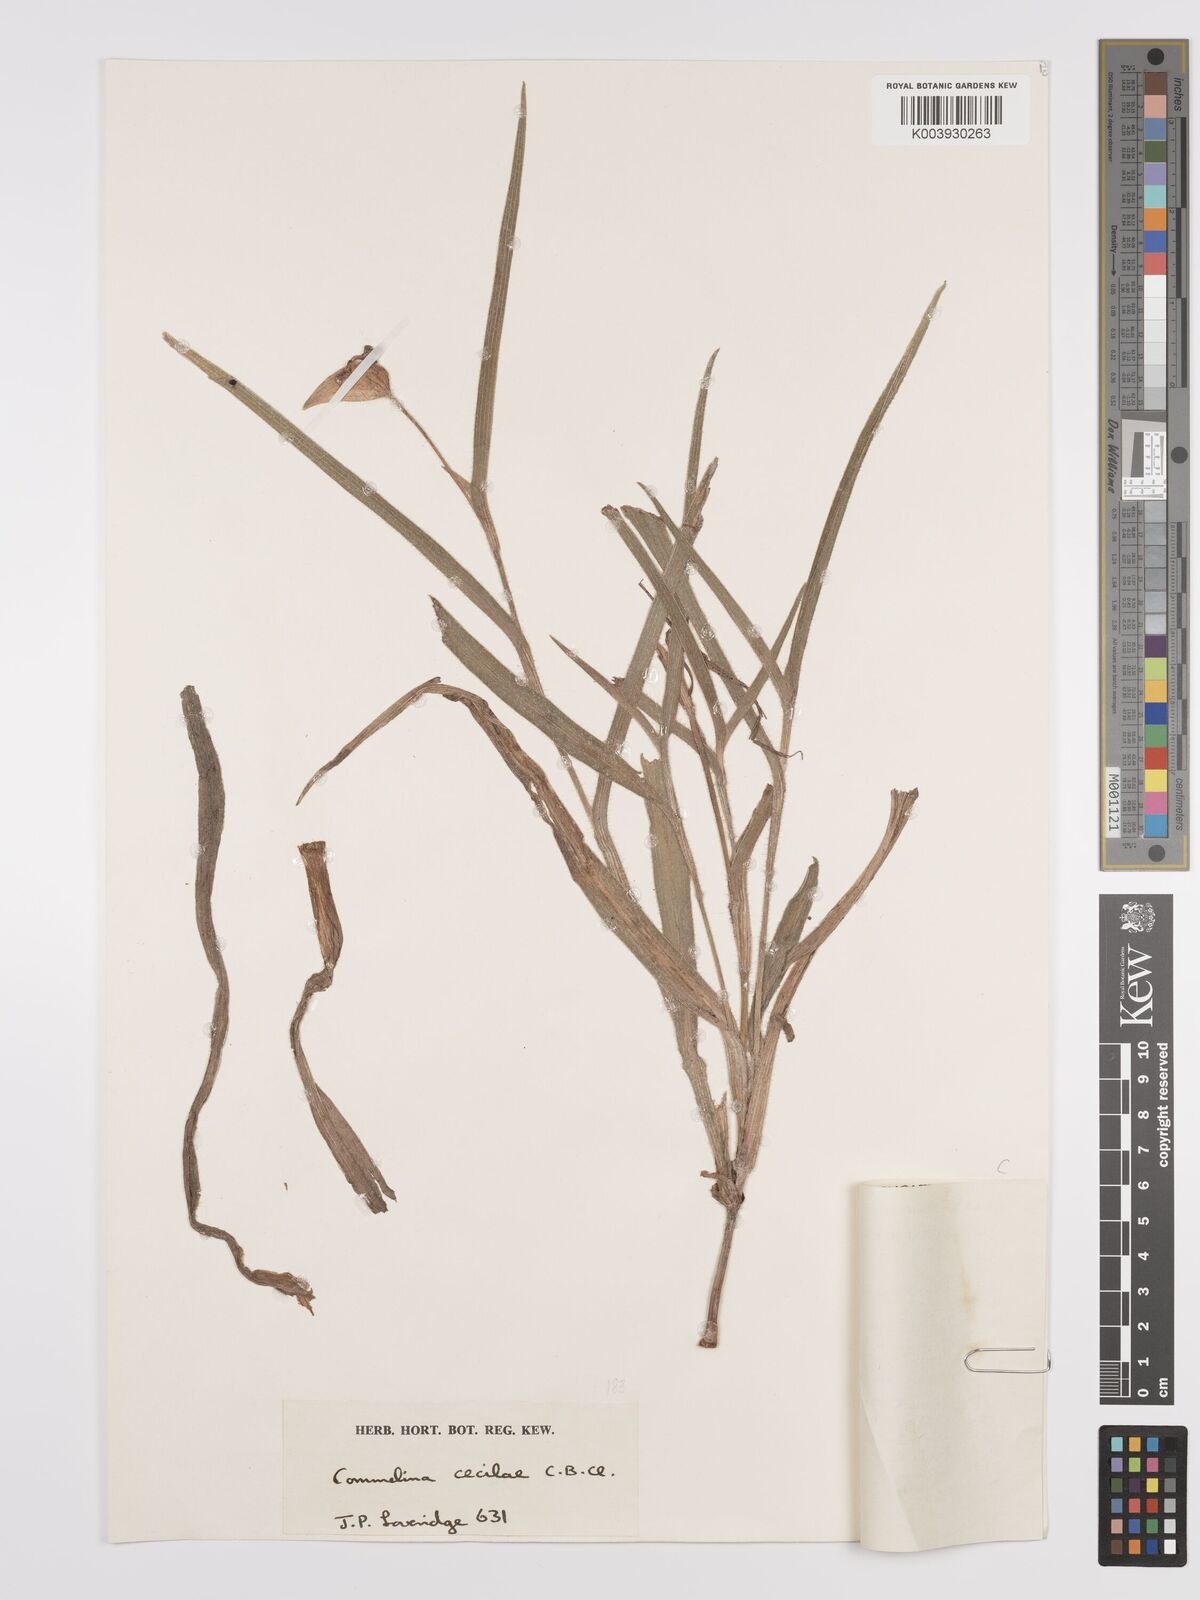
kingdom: Plantae
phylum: Tracheophyta
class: Liliopsida
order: Commelinales
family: Commelinaceae
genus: Commelina
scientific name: Commelina schweinfurthii
